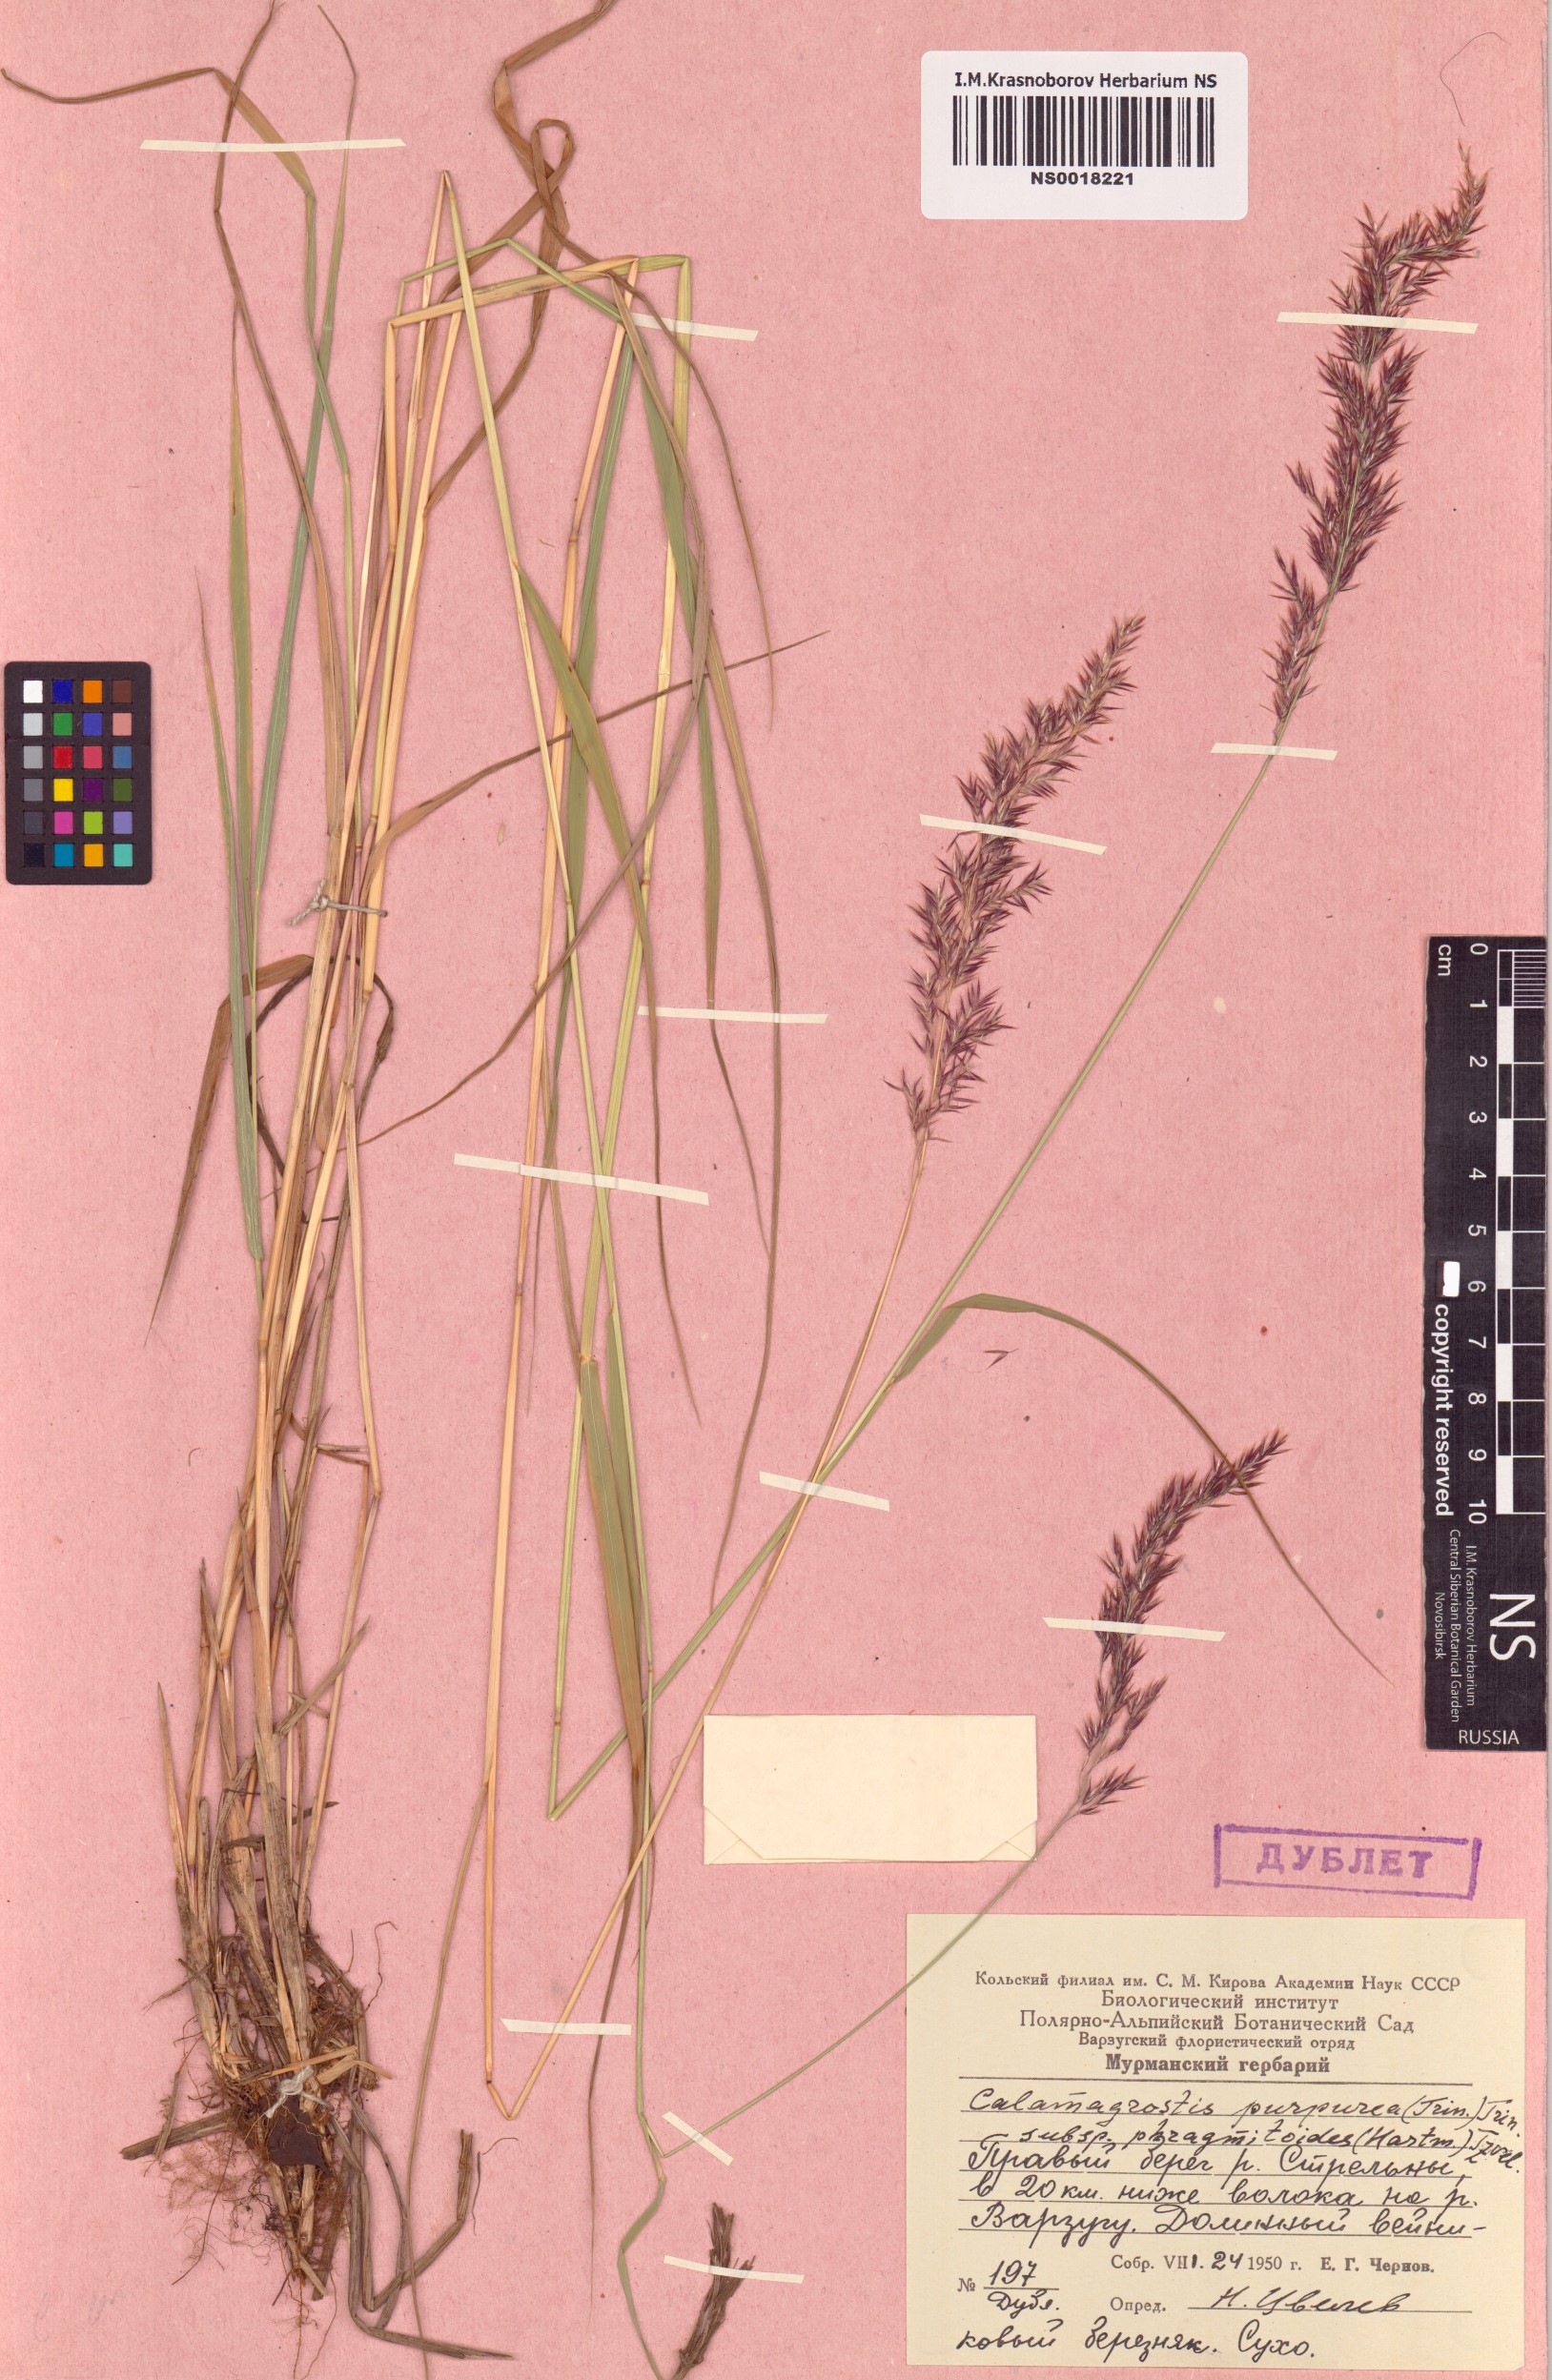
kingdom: Plantae
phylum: Tracheophyta
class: Liliopsida
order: Poales
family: Poaceae
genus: Calamagrostis
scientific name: Calamagrostis purpurea
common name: Scandinavian small-reed
